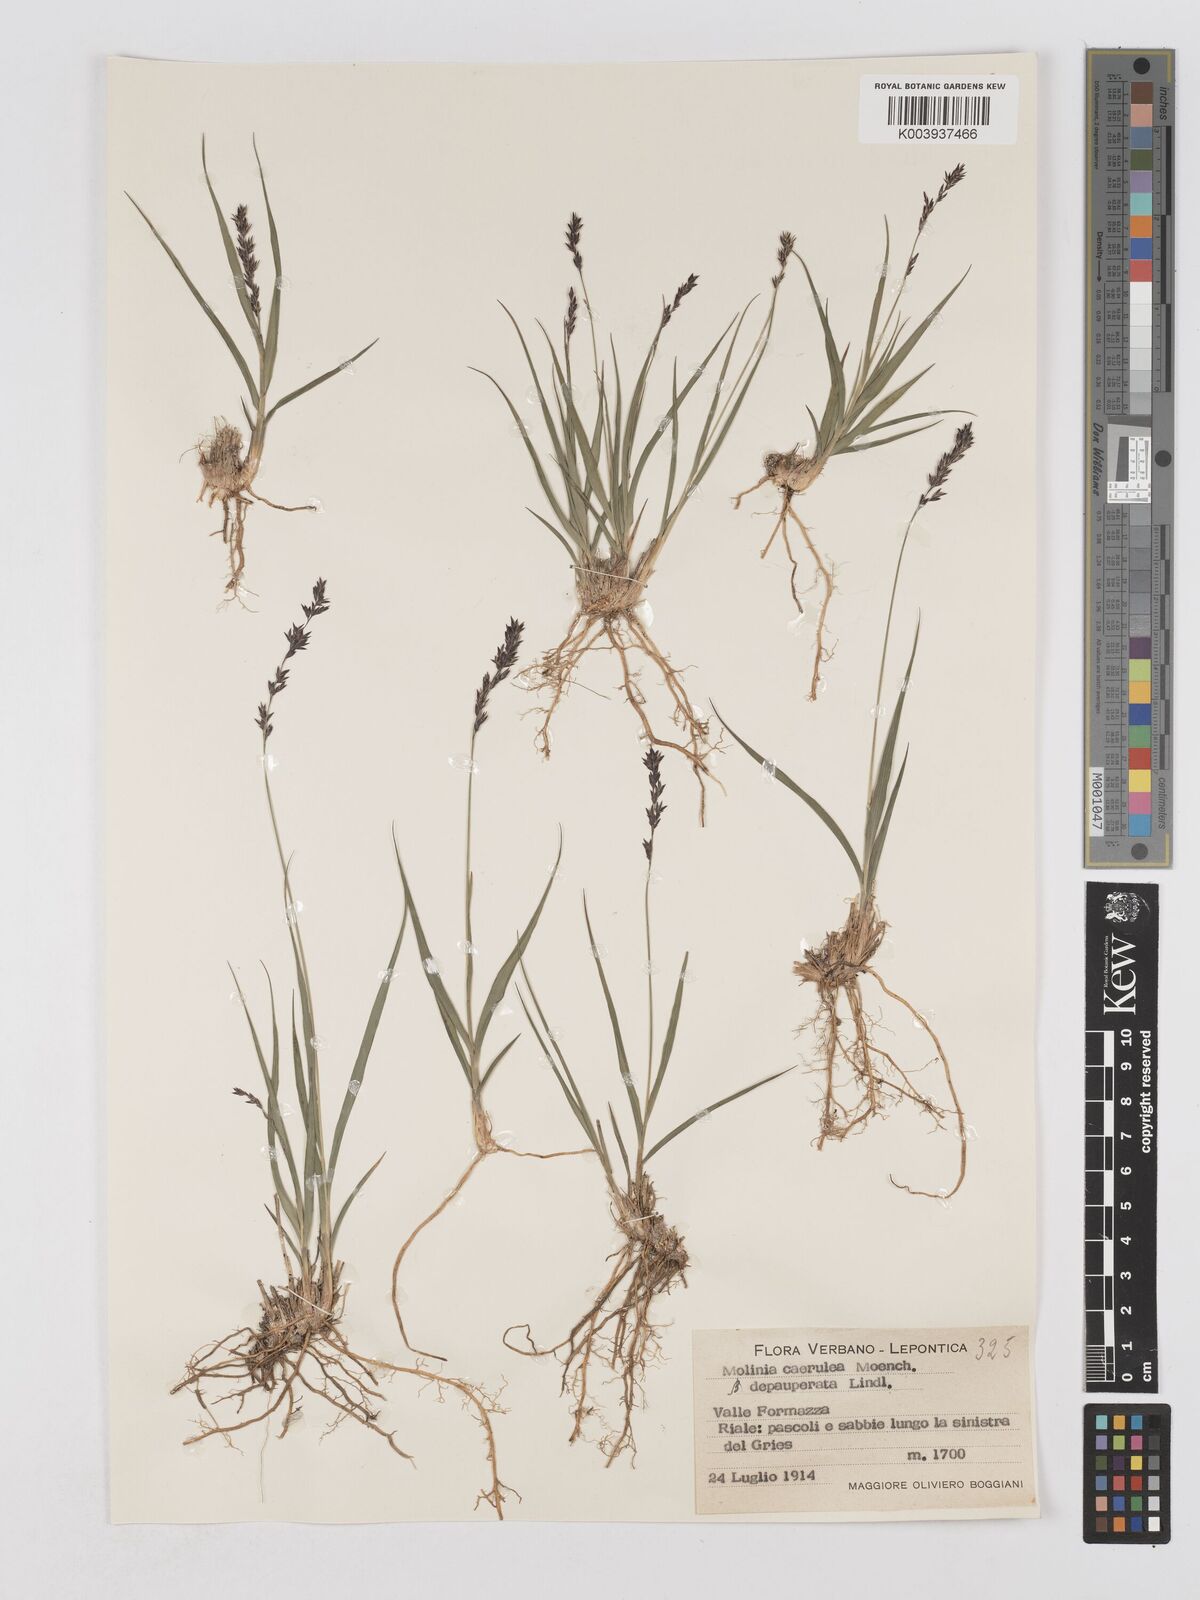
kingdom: Plantae
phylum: Tracheophyta
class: Liliopsida
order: Poales
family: Poaceae
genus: Molinia
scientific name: Molinia caerulea
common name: Purple moor-grass
